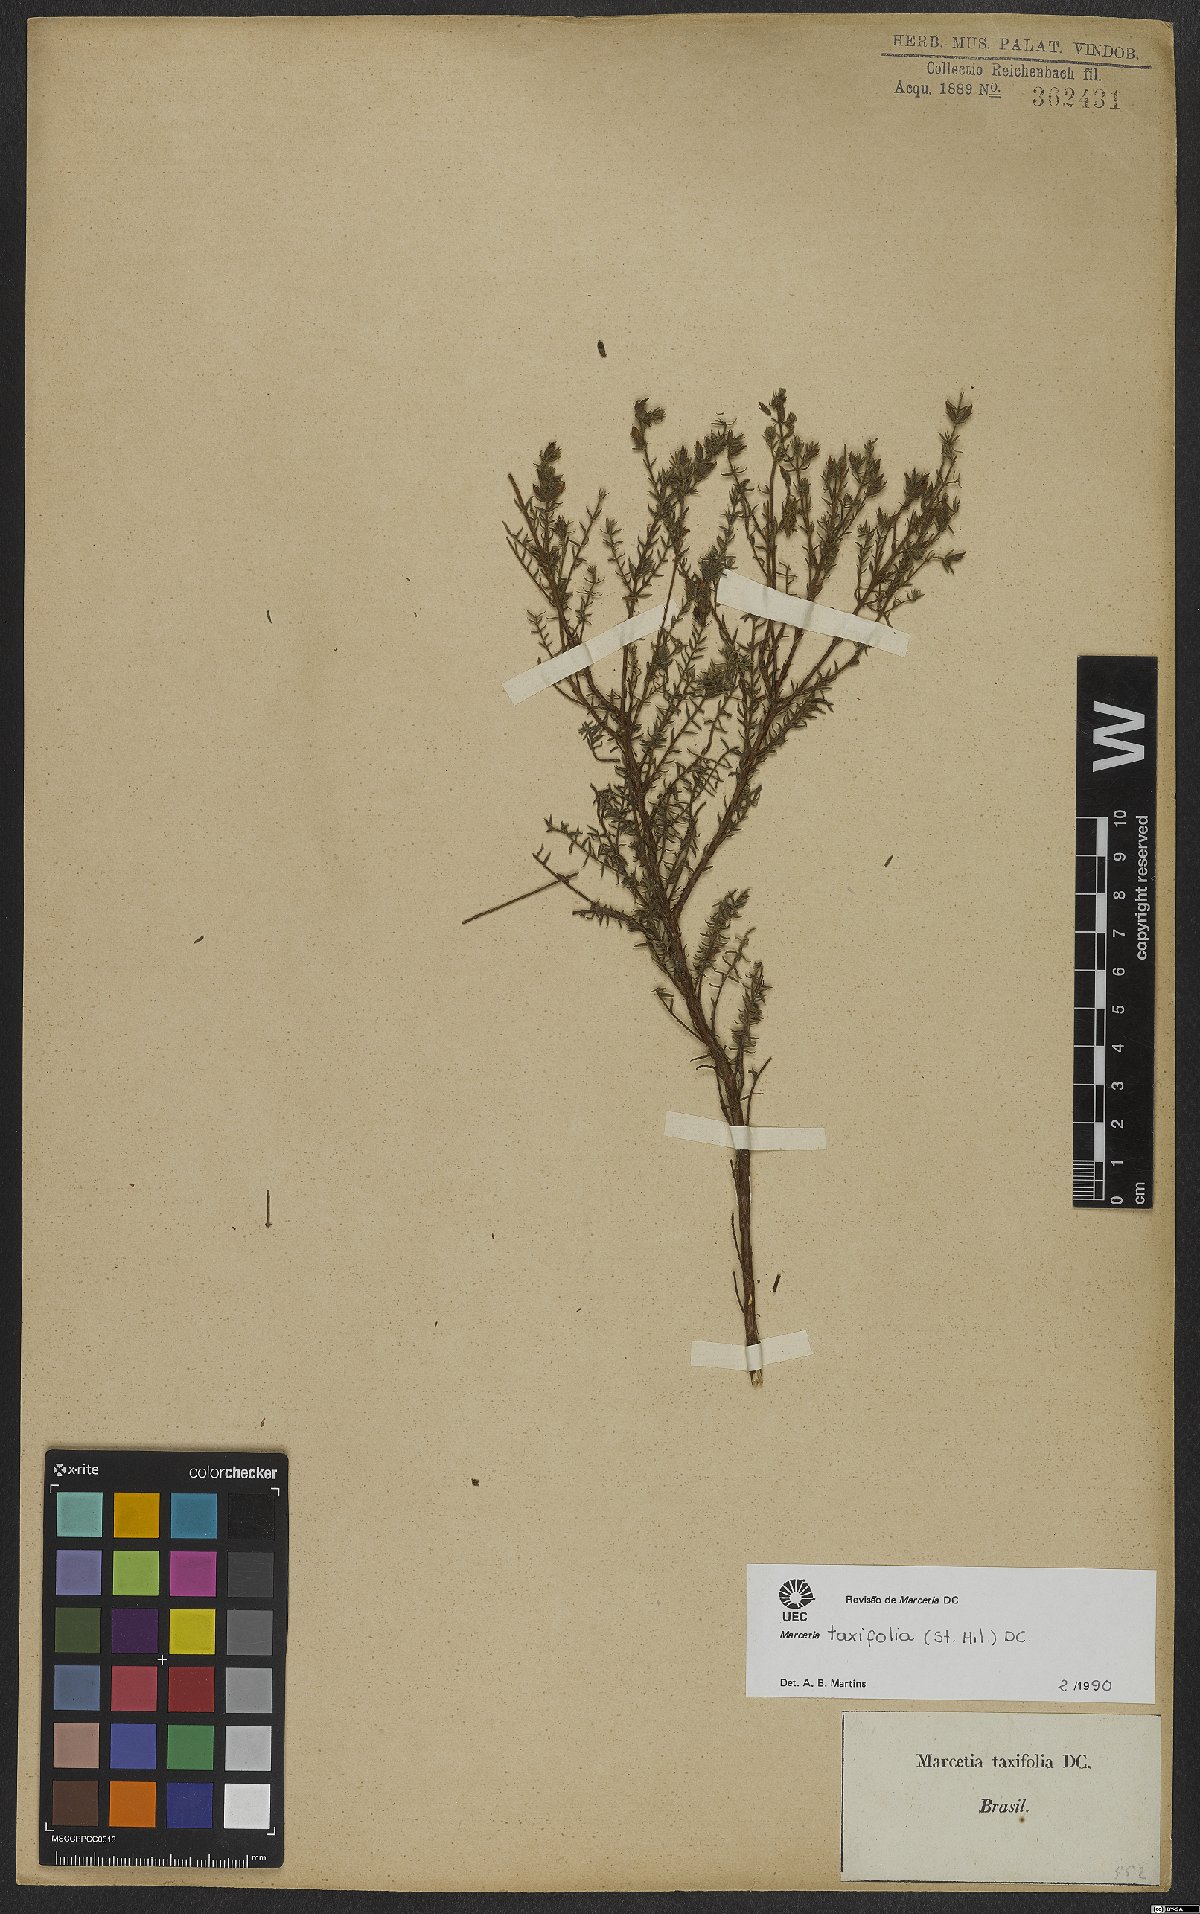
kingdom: Plantae
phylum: Tracheophyta
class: Magnoliopsida
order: Myrtales
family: Melastomataceae
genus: Marcetia
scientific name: Marcetia taxifolia
